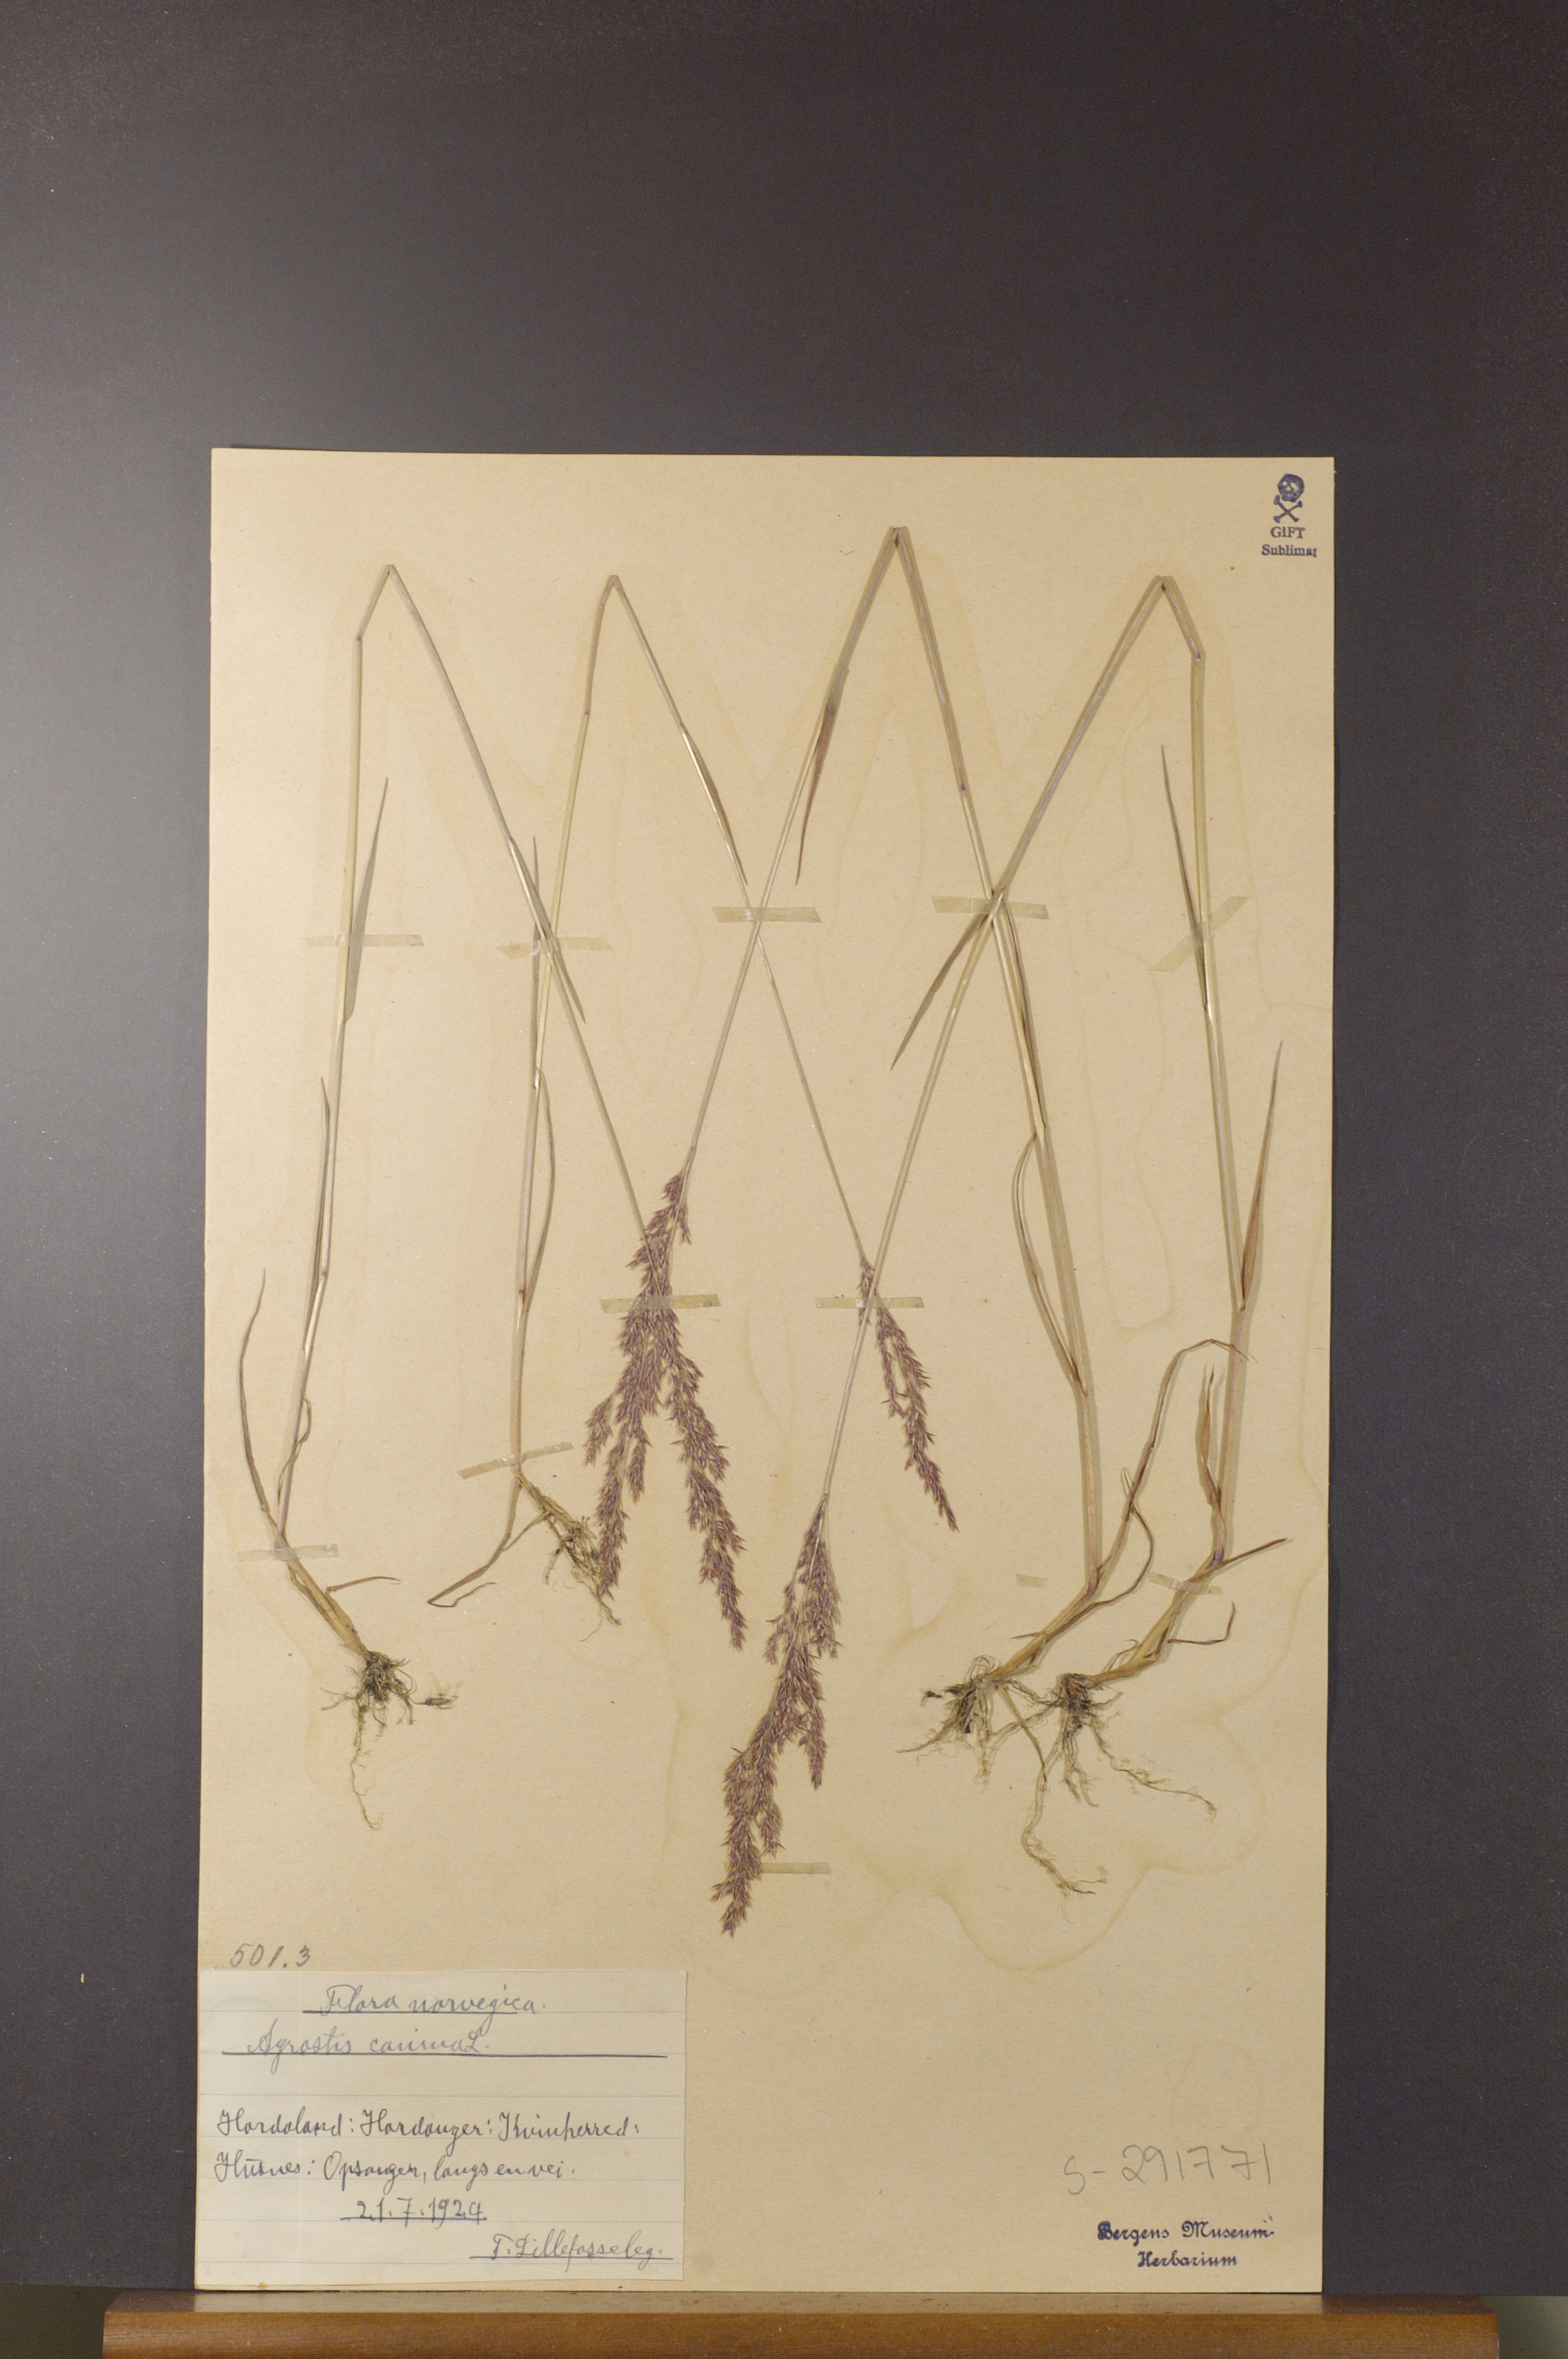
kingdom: Plantae
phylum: Tracheophyta
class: Liliopsida
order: Poales
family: Poaceae
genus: Agrostis
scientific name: Agrostis canina
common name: Velvet bent
